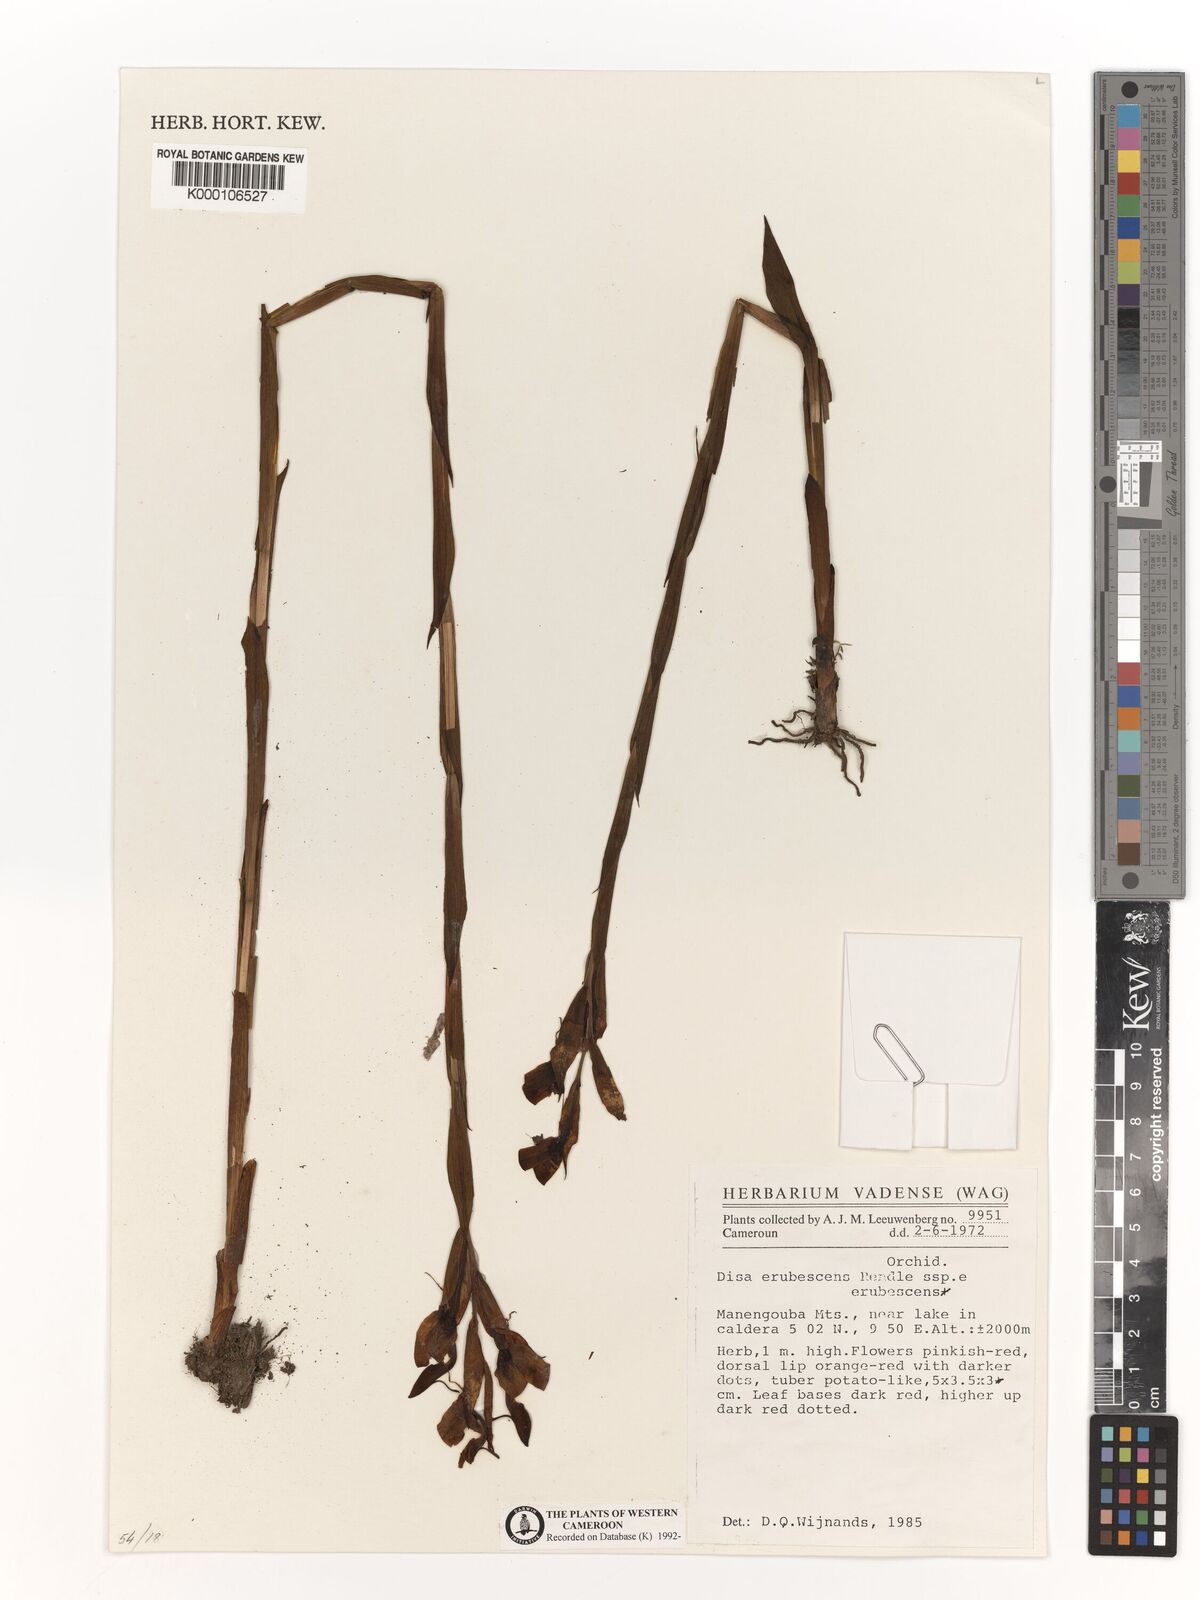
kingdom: Plantae
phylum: Tracheophyta
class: Liliopsida
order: Asparagales
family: Orchidaceae
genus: Disa
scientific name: Disa erubescens
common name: The rose disa
